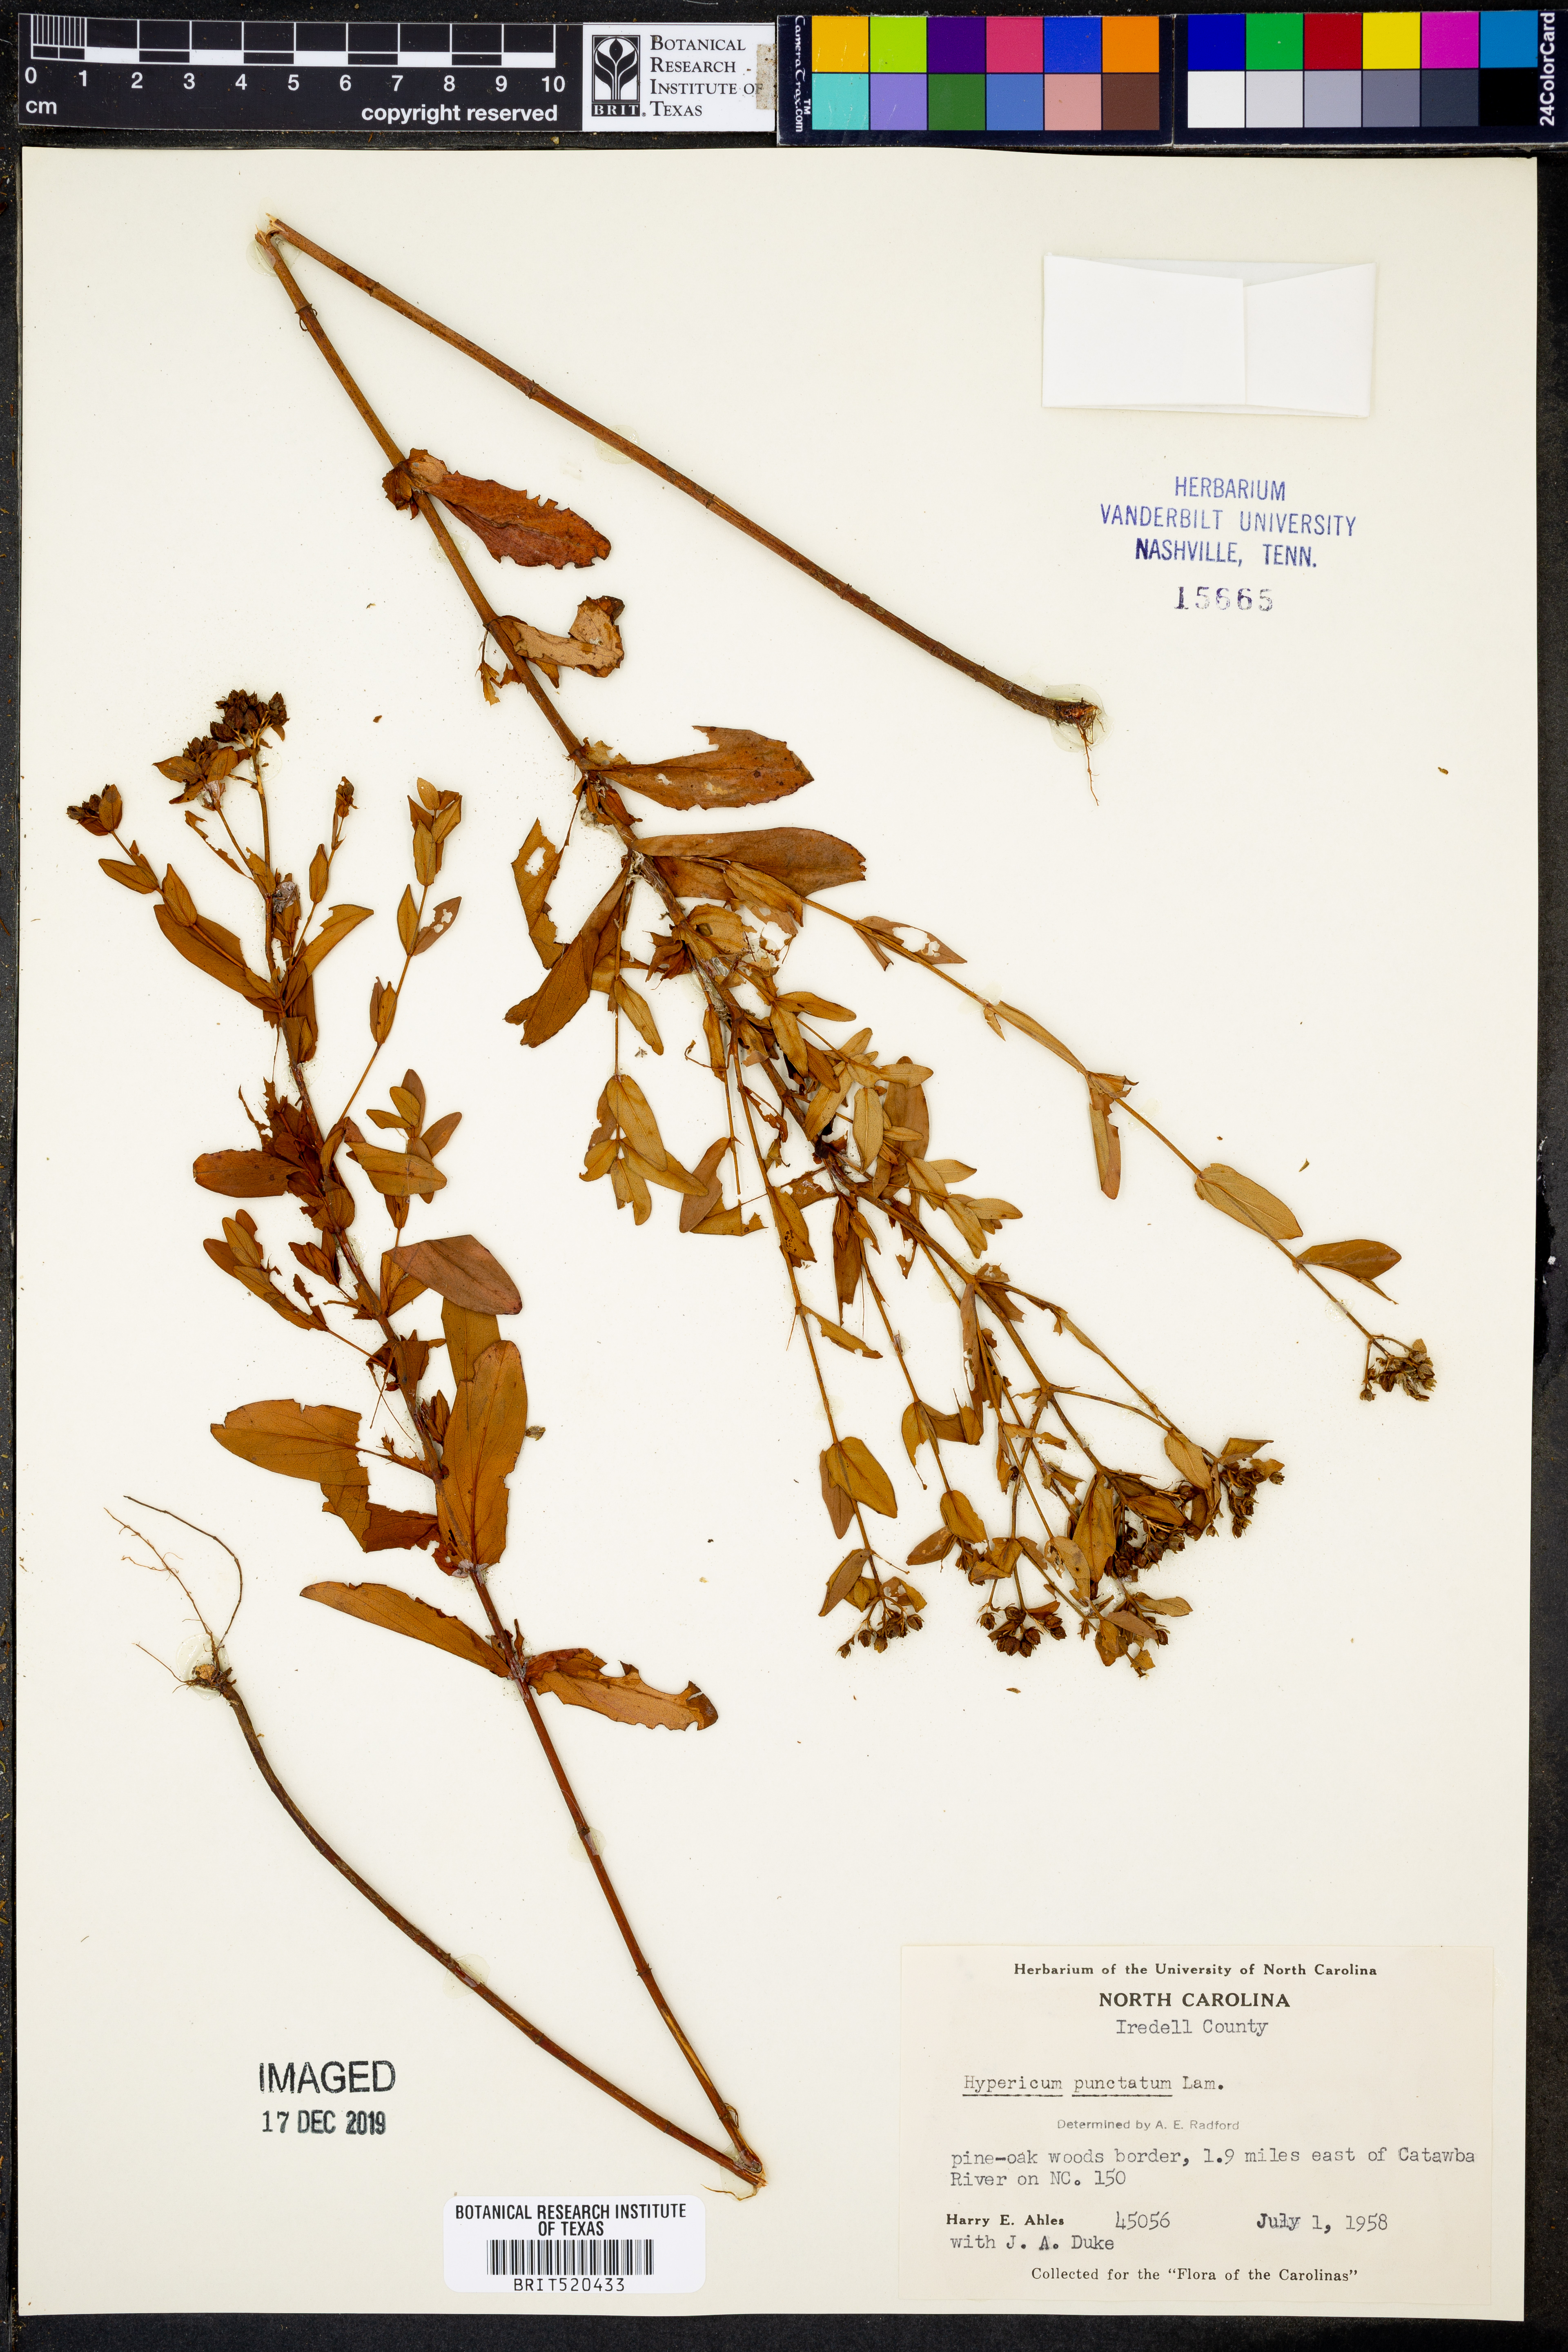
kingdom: Plantae
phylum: Tracheophyta
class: Magnoliopsida
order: Malpighiales
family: Hypericaceae
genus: Hypericum
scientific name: Hypericum punctatum
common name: Spotted st. john's-wort
